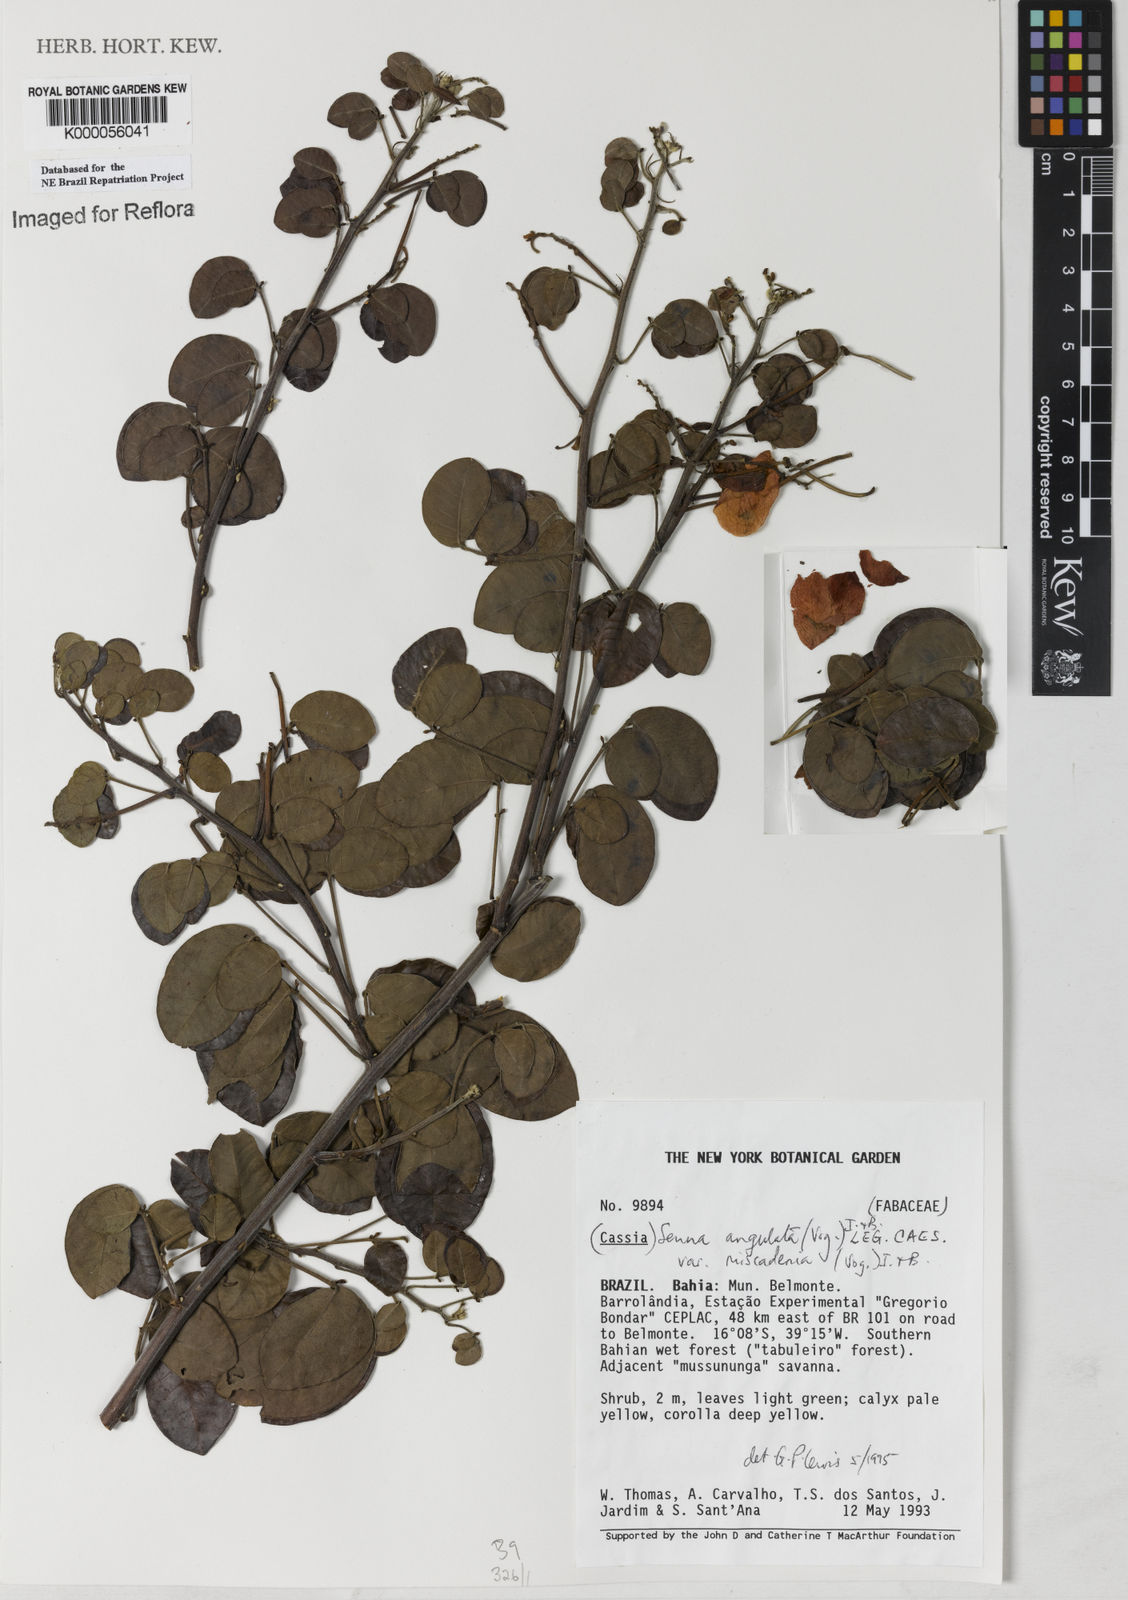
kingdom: Plantae
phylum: Tracheophyta
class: Magnoliopsida
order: Fabales
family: Fabaceae
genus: Senna
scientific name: Senna angulata
